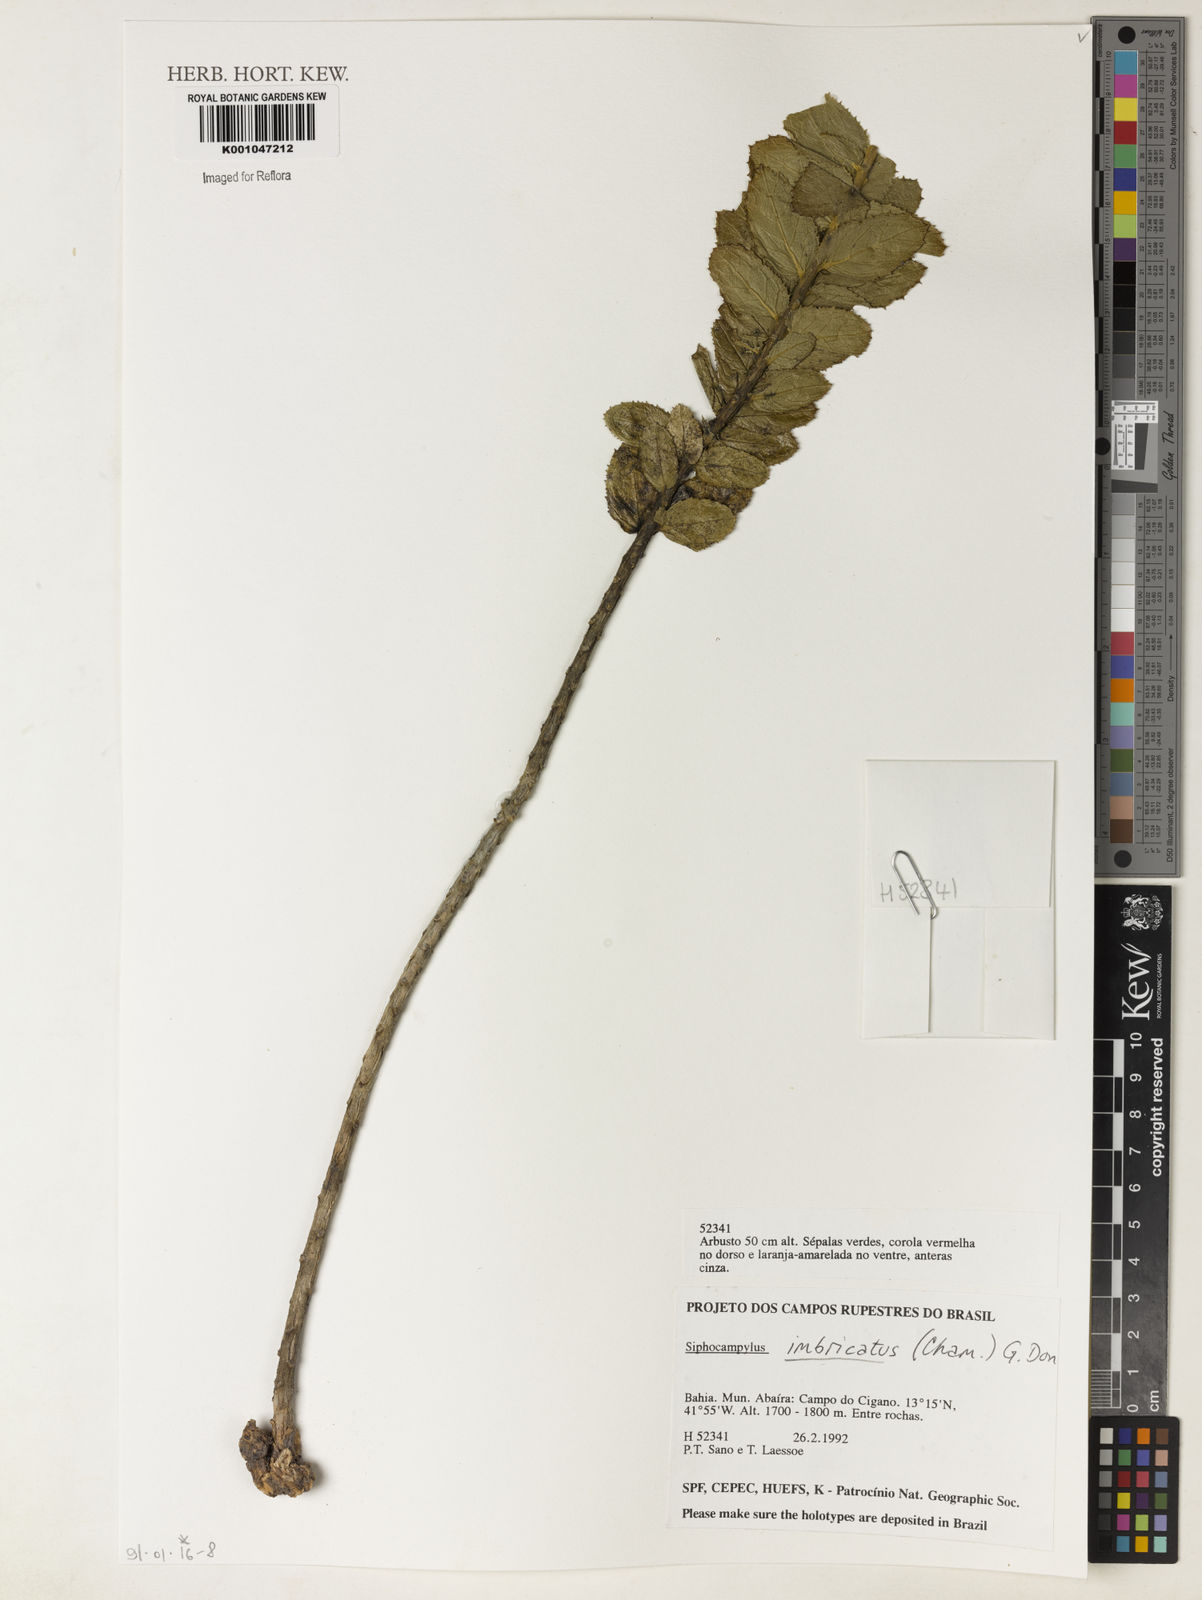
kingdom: Plantae
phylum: Tracheophyta
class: Magnoliopsida
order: Asterales
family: Campanulaceae
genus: Siphocampylus
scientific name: Siphocampylus imbricatus
